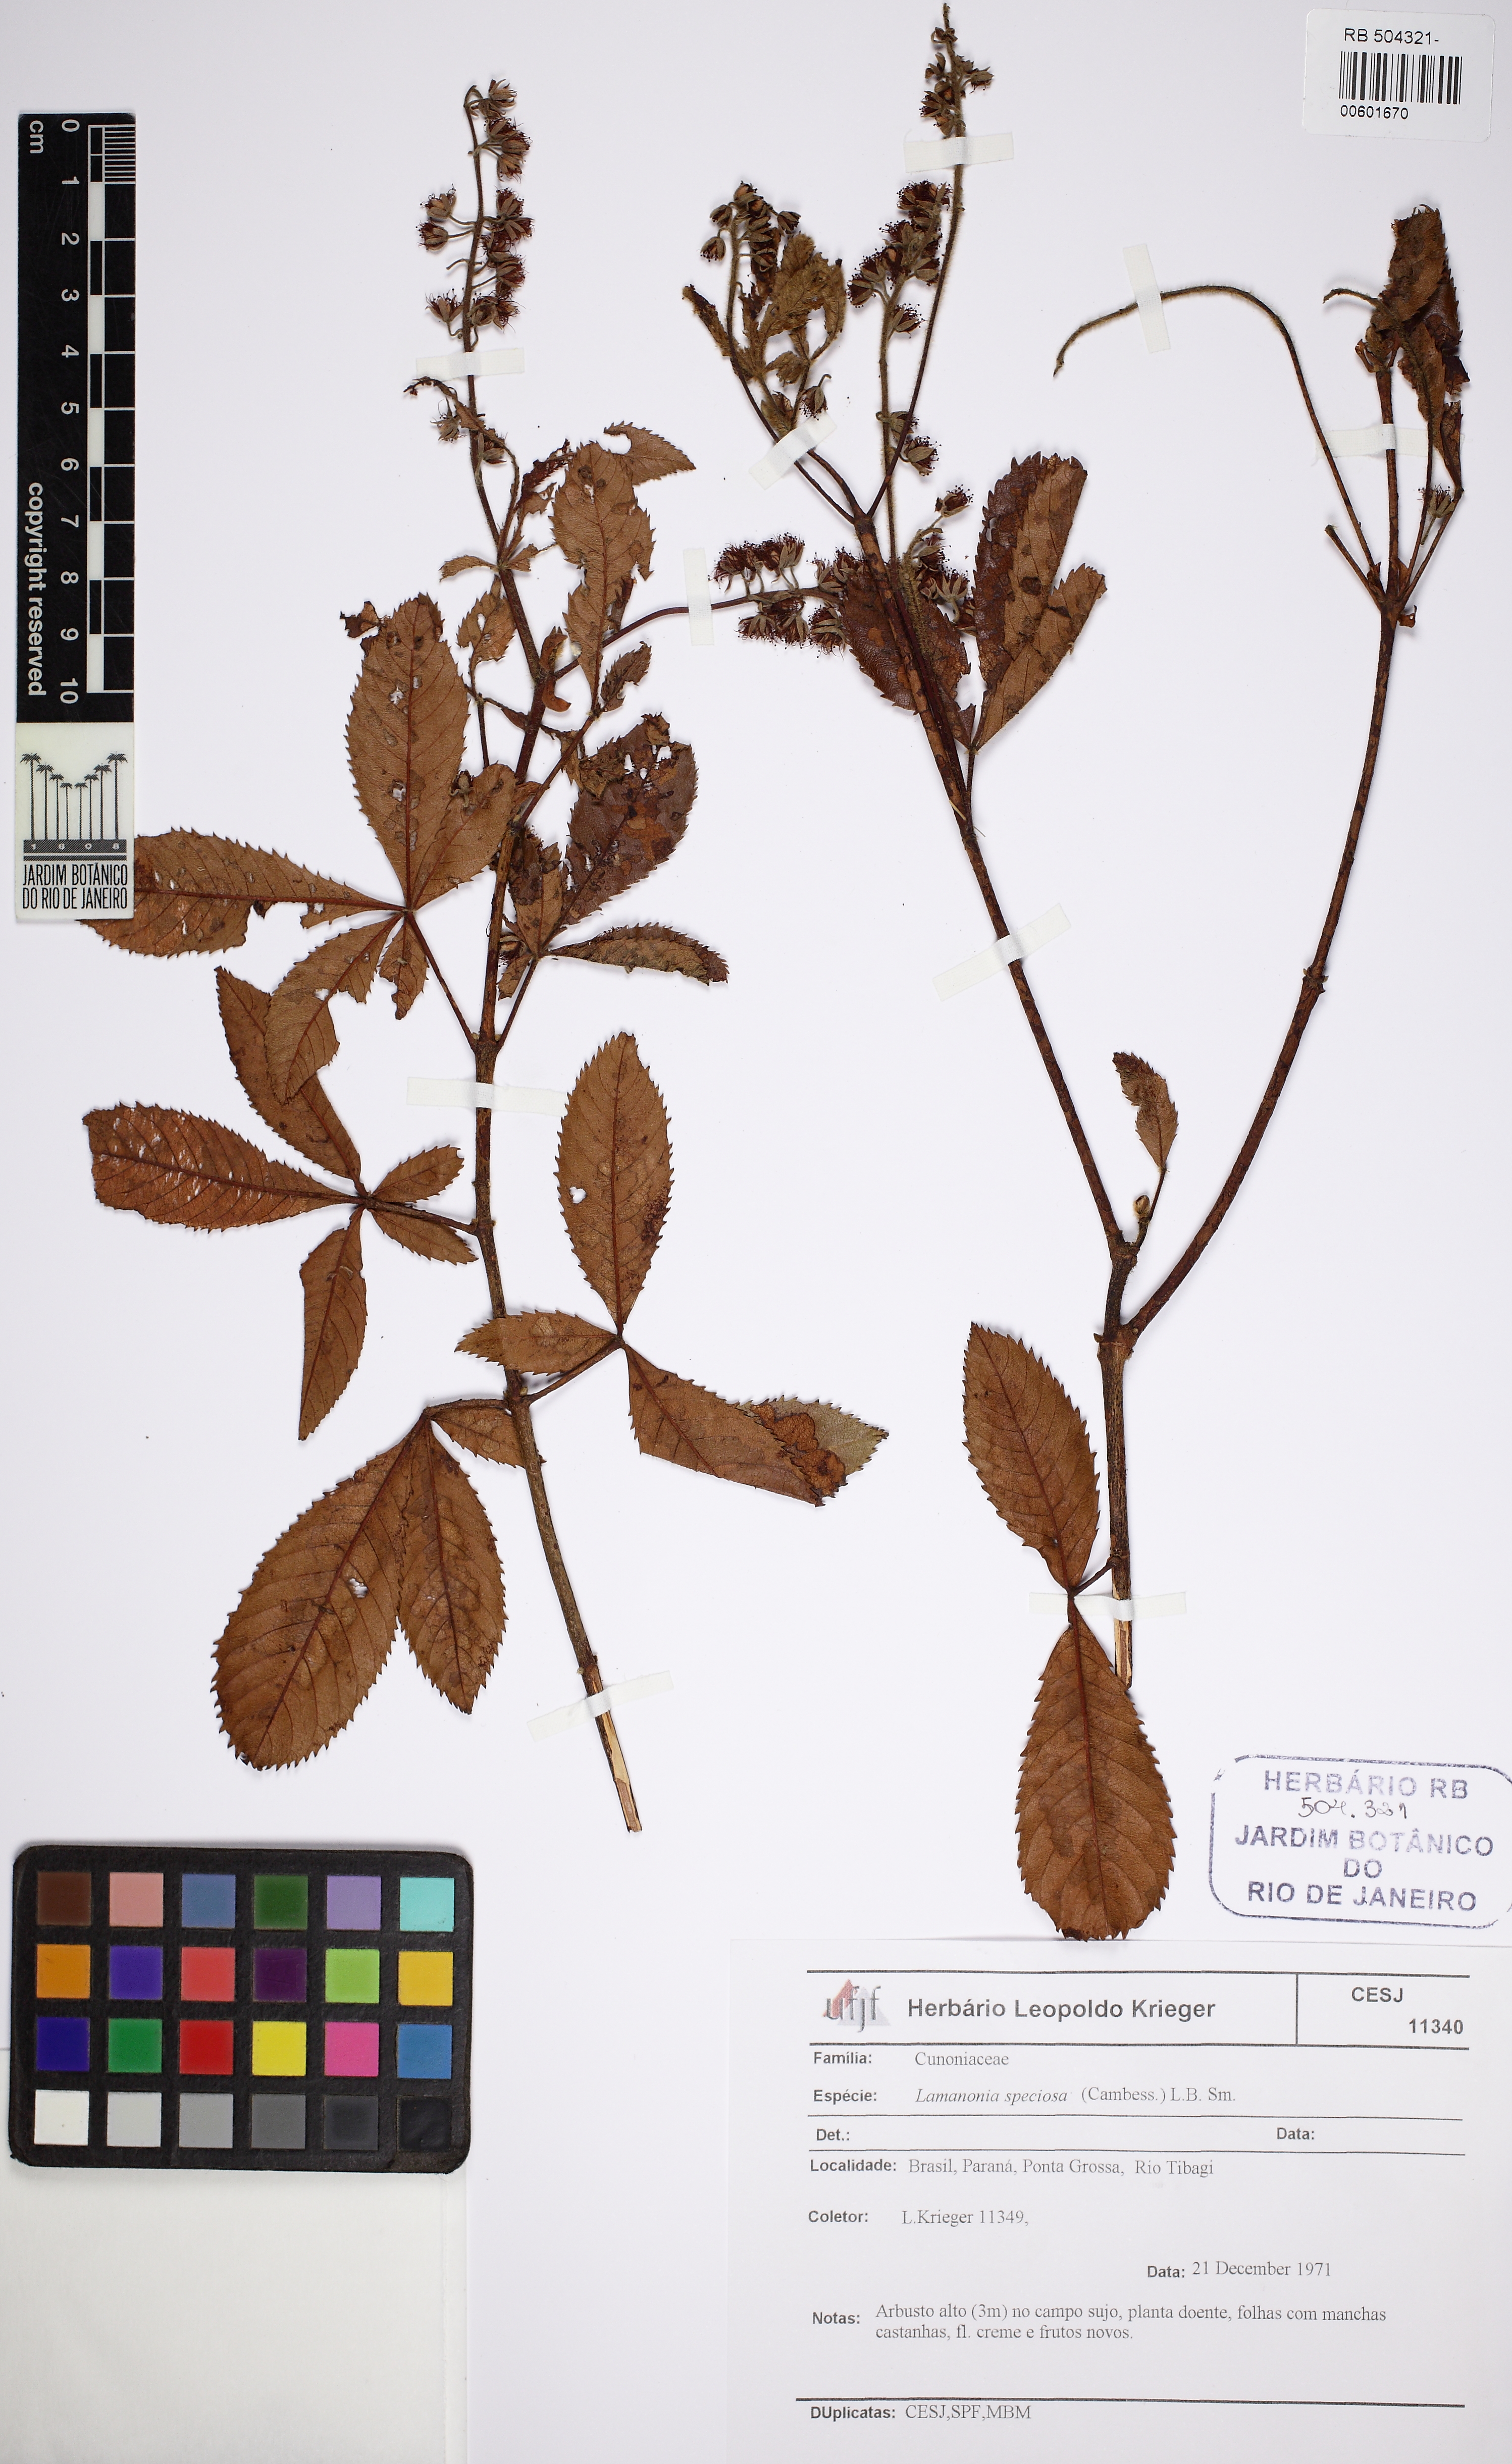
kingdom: Plantae
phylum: Tracheophyta
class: Magnoliopsida
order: Oxalidales
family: Cunoniaceae
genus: Lamanonia
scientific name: Lamanonia ternata
